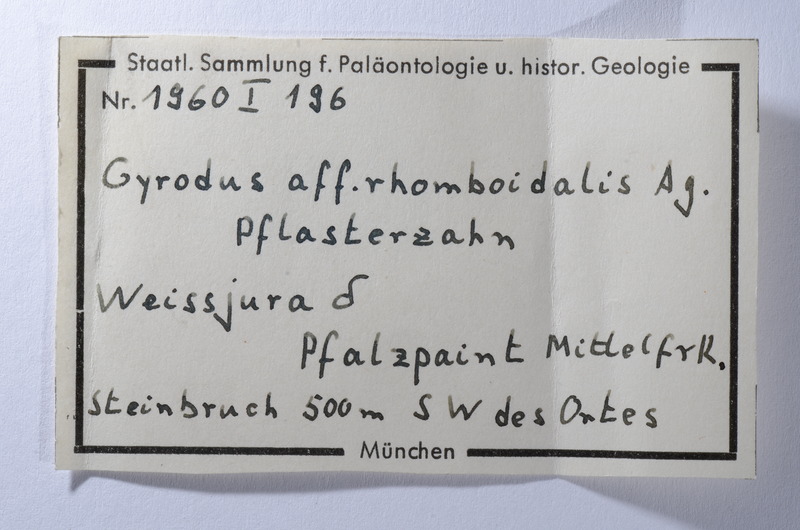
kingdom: Animalia
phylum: Chordata
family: Gyrodontidae
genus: Gyrodus
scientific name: Gyrodus circularis
